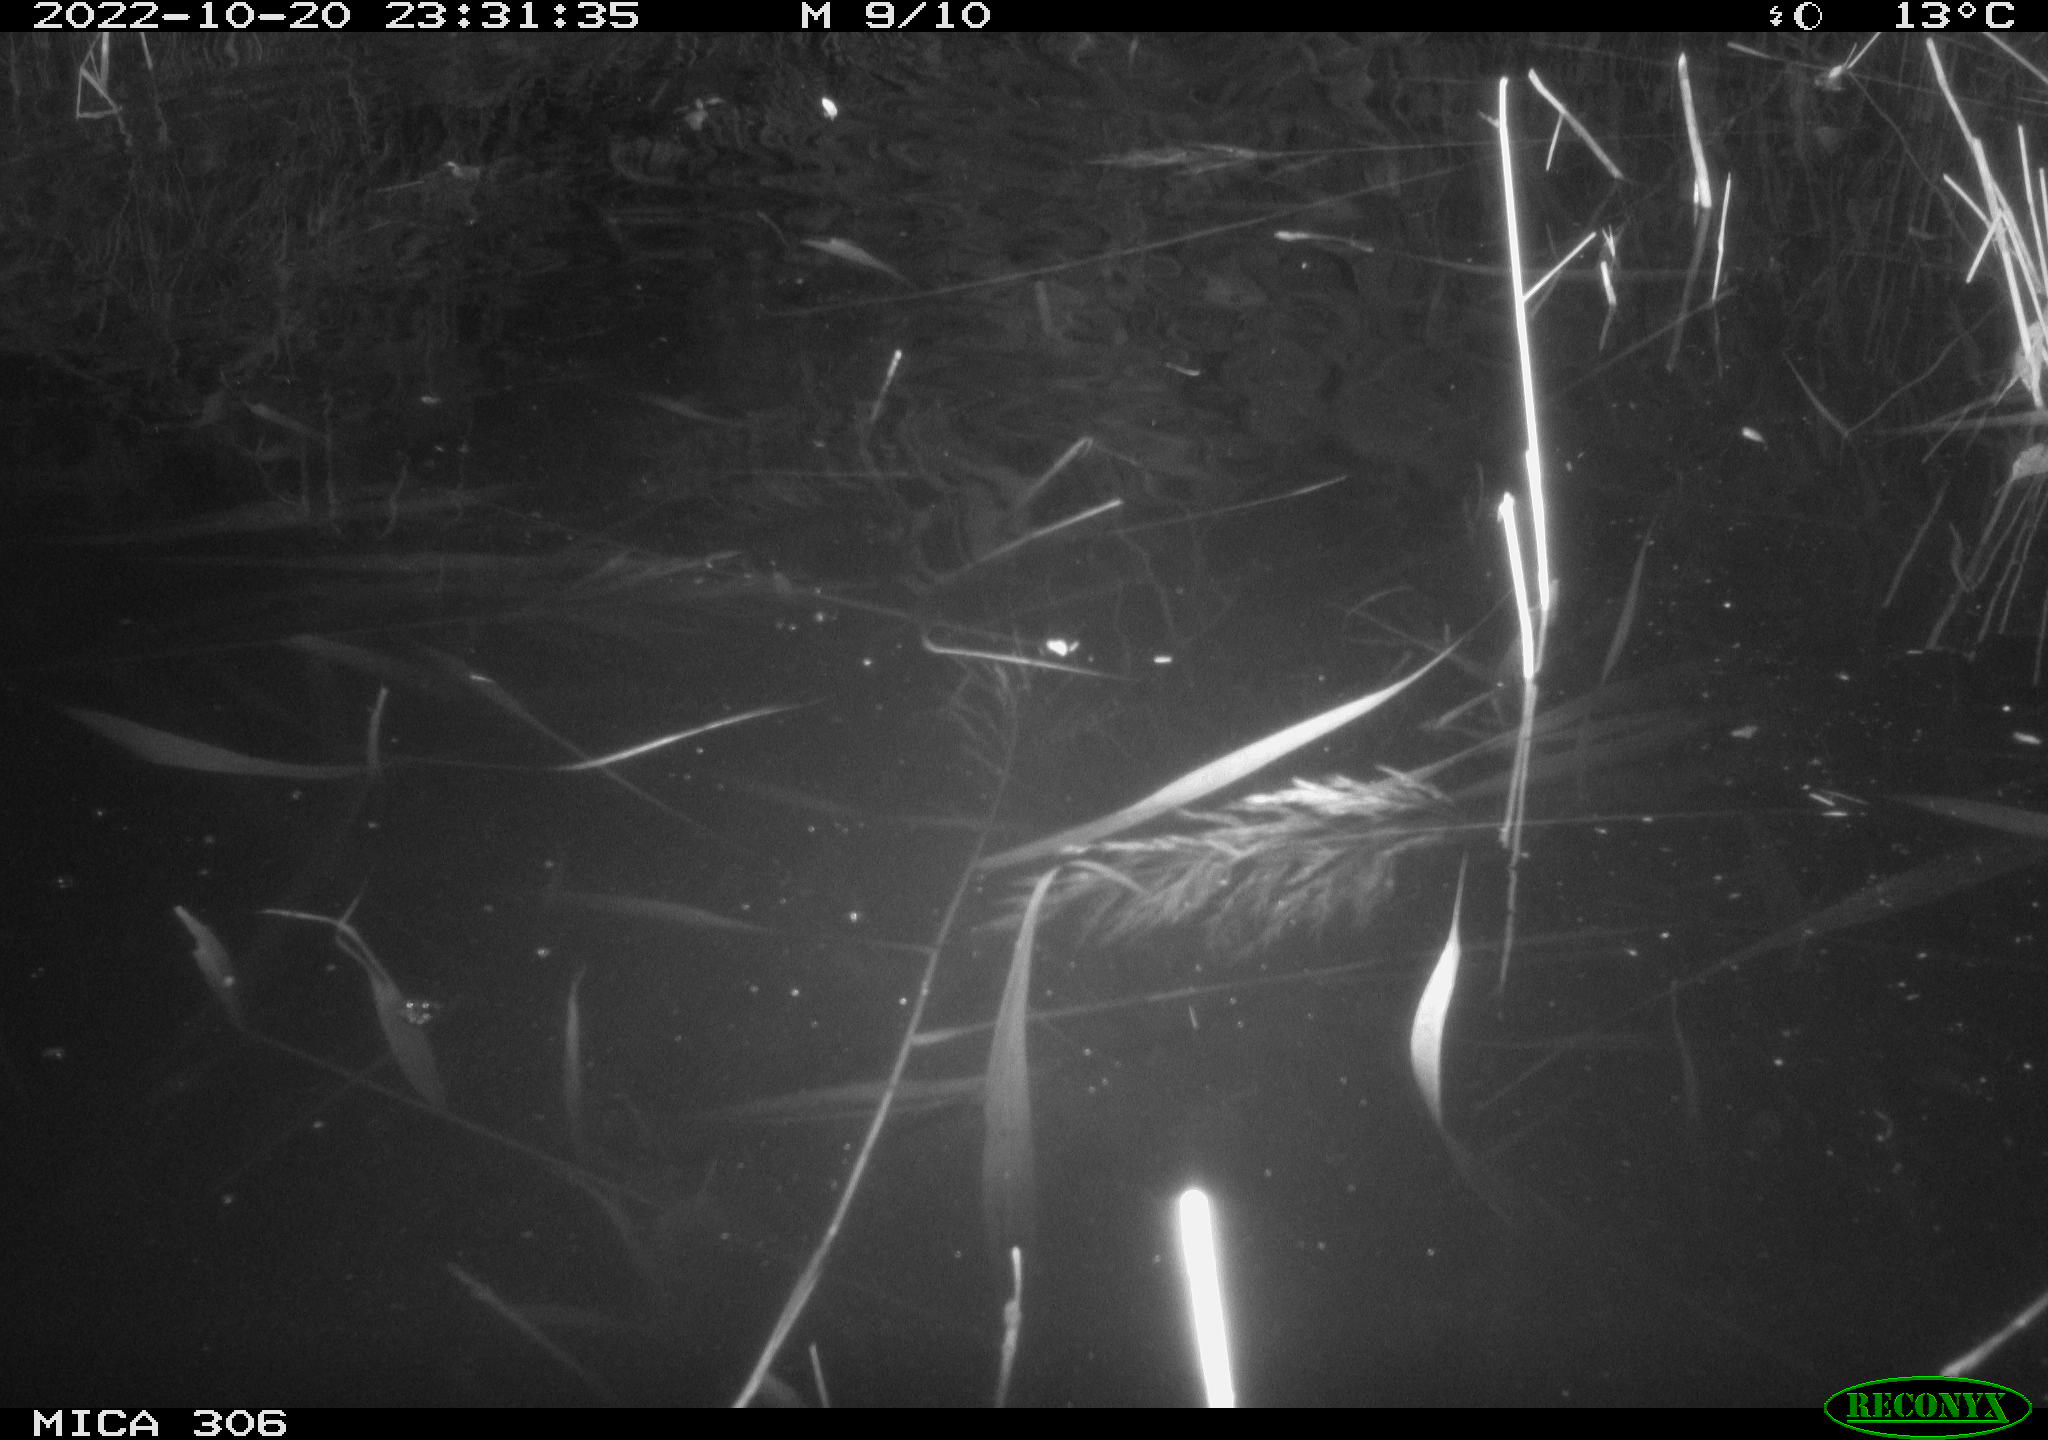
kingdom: Animalia
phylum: Chordata
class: Mammalia
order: Rodentia
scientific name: Rodentia
